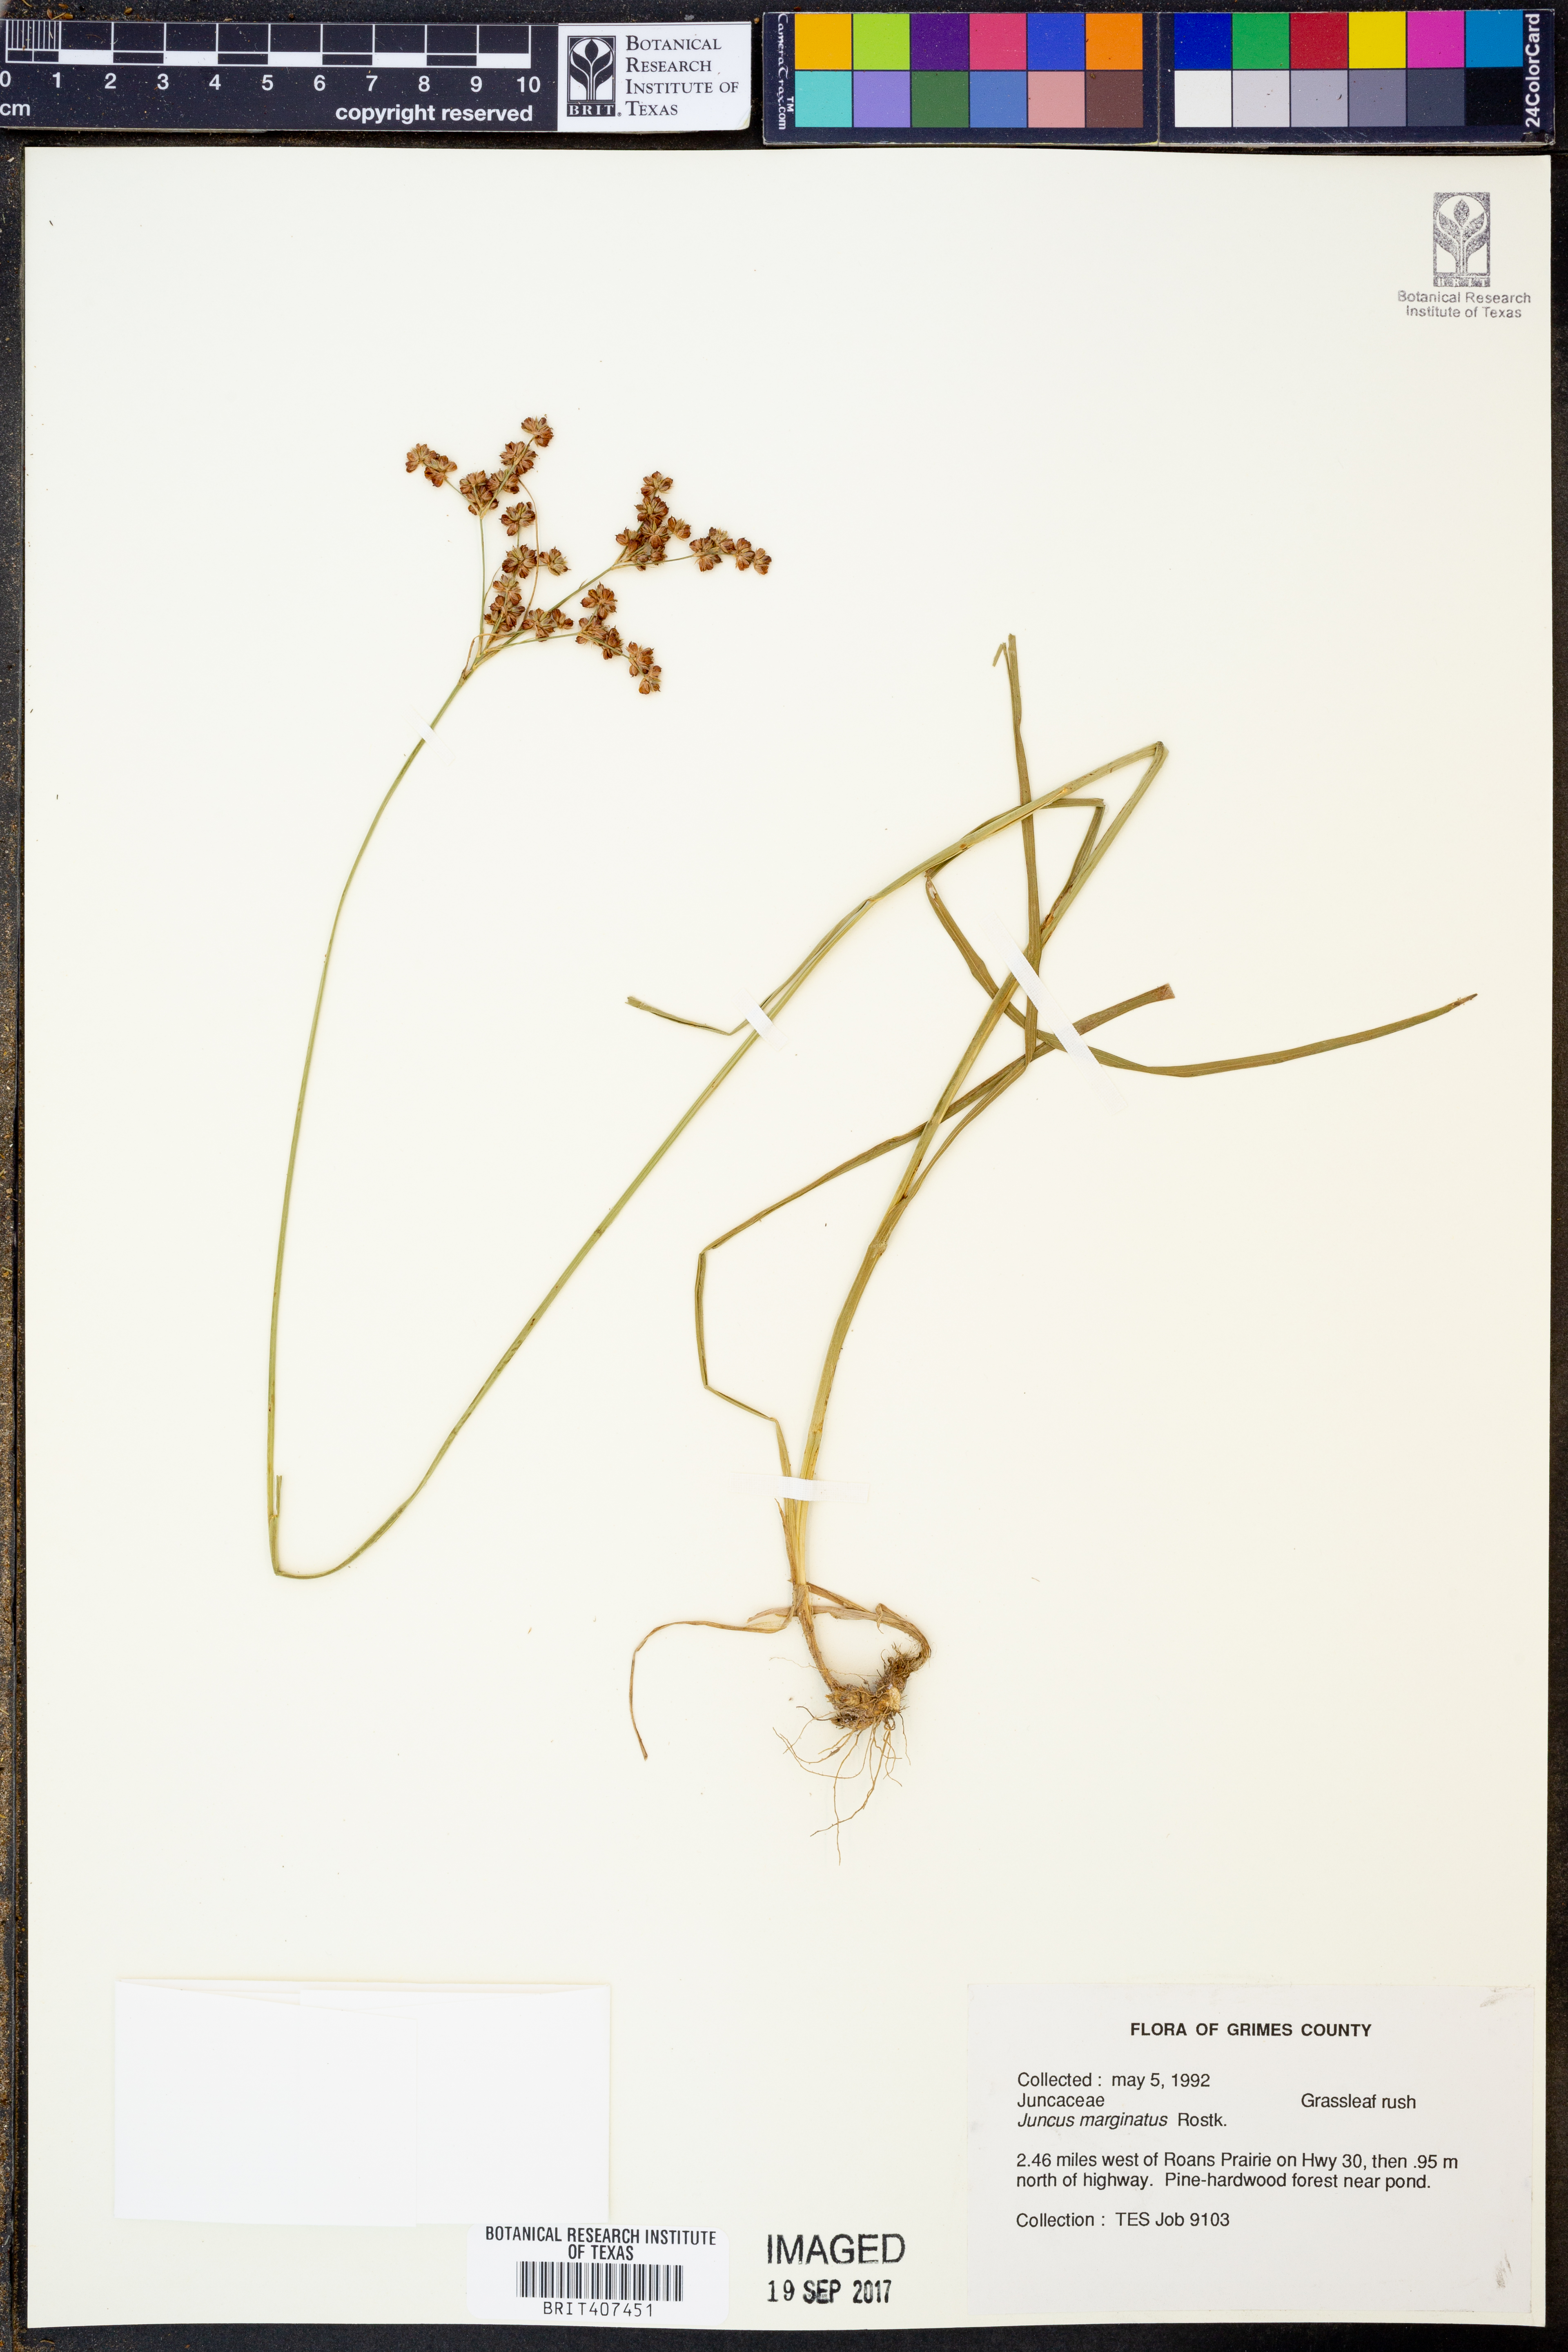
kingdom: Plantae
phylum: Tracheophyta
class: Liliopsida
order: Poales
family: Juncaceae
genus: Juncus
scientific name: Juncus marginatus
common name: Grass-leaf rush
